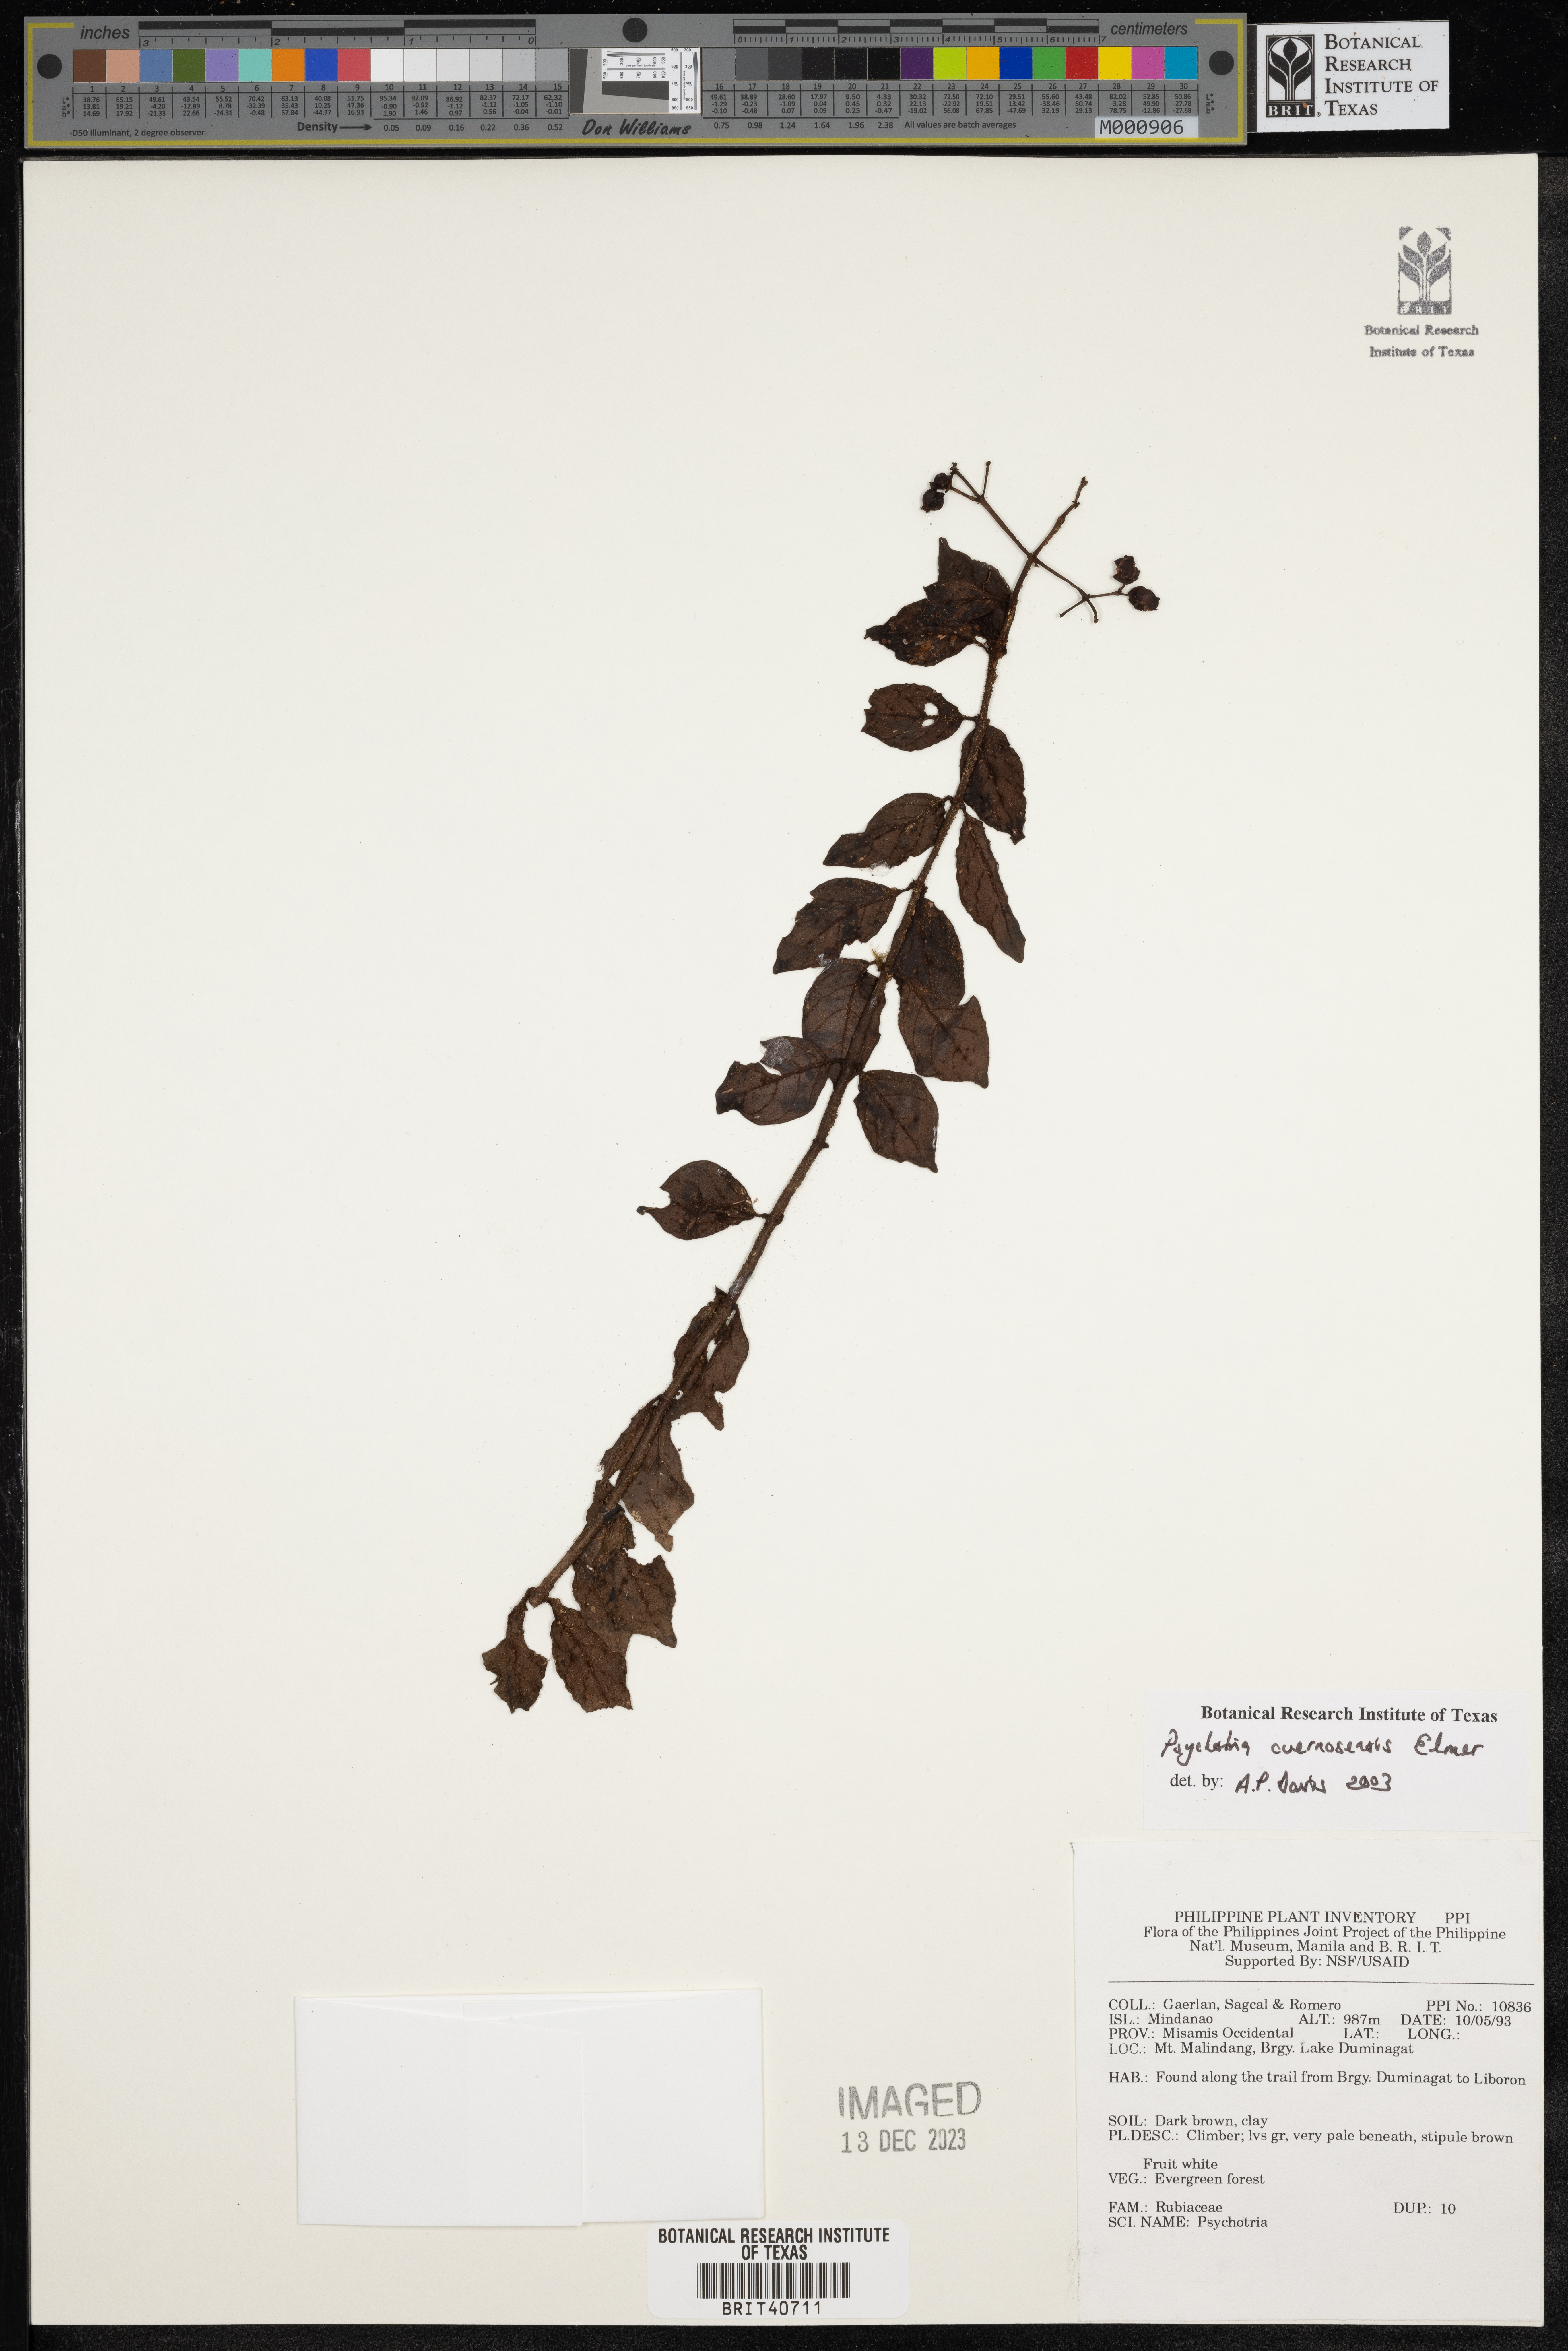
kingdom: Plantae
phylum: Tracheophyta
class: Magnoliopsida
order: Gentianales
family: Rubiaceae
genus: Psychotria
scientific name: Psychotria cuernosensis
